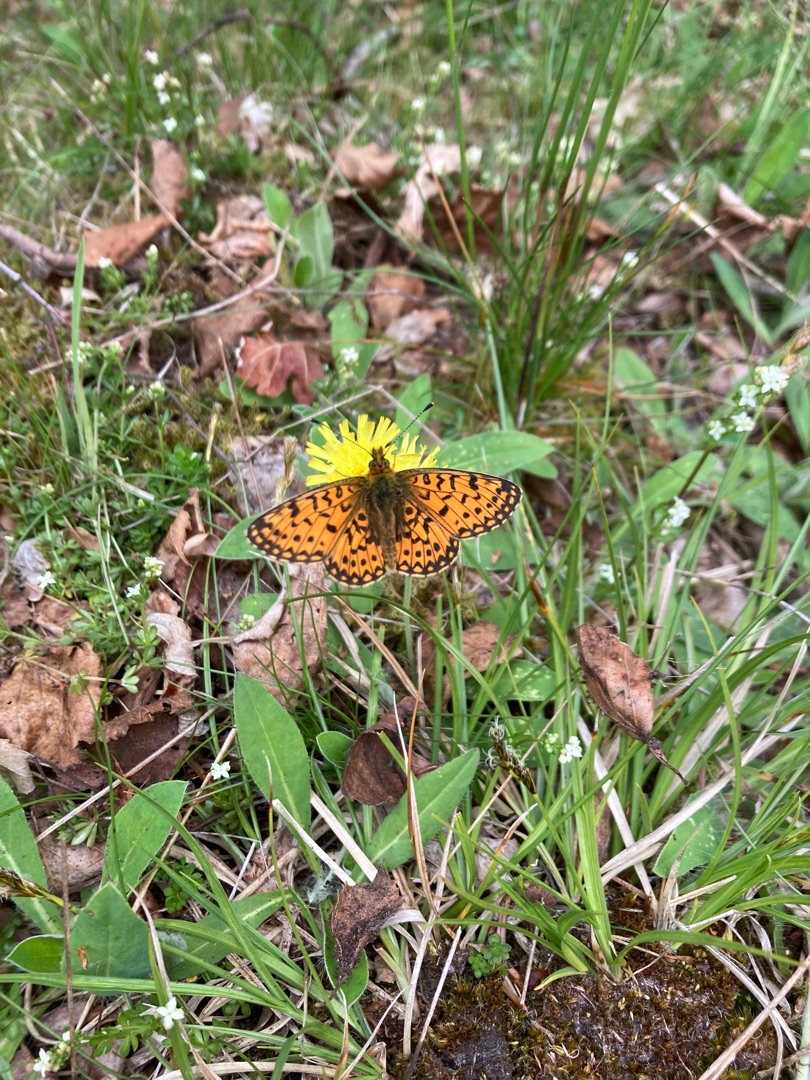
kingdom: Animalia
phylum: Arthropoda
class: Insecta
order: Lepidoptera
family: Nymphalidae
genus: Boloria
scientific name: Boloria selene
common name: Brunlig perlemorsommerfugl
